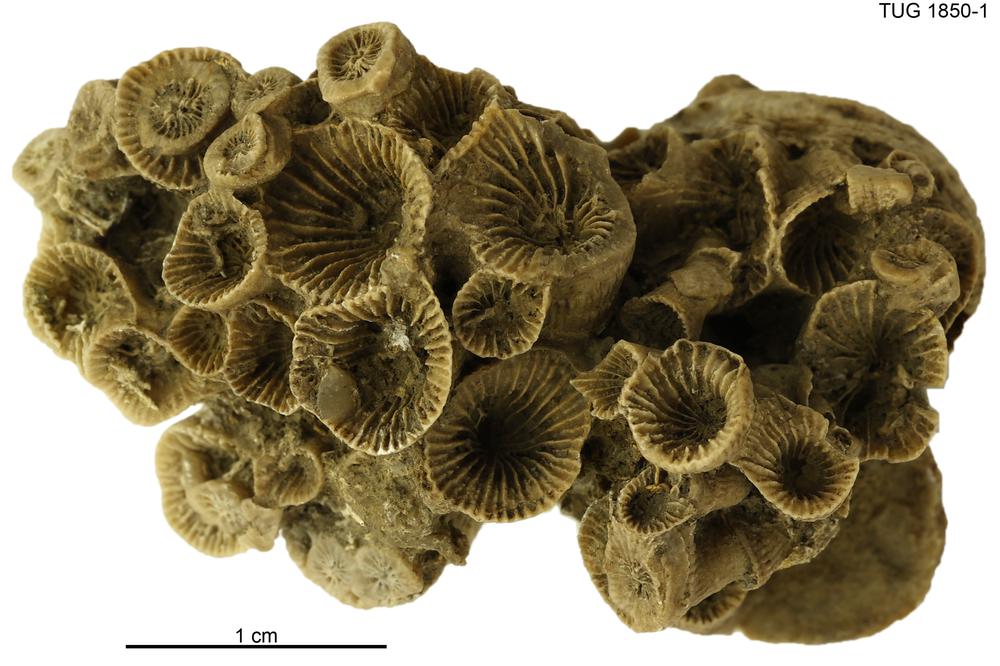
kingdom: Animalia
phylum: Cnidaria
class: Anthozoa
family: Entelophyllidae
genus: Entelophyllum
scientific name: Entelophyllum
